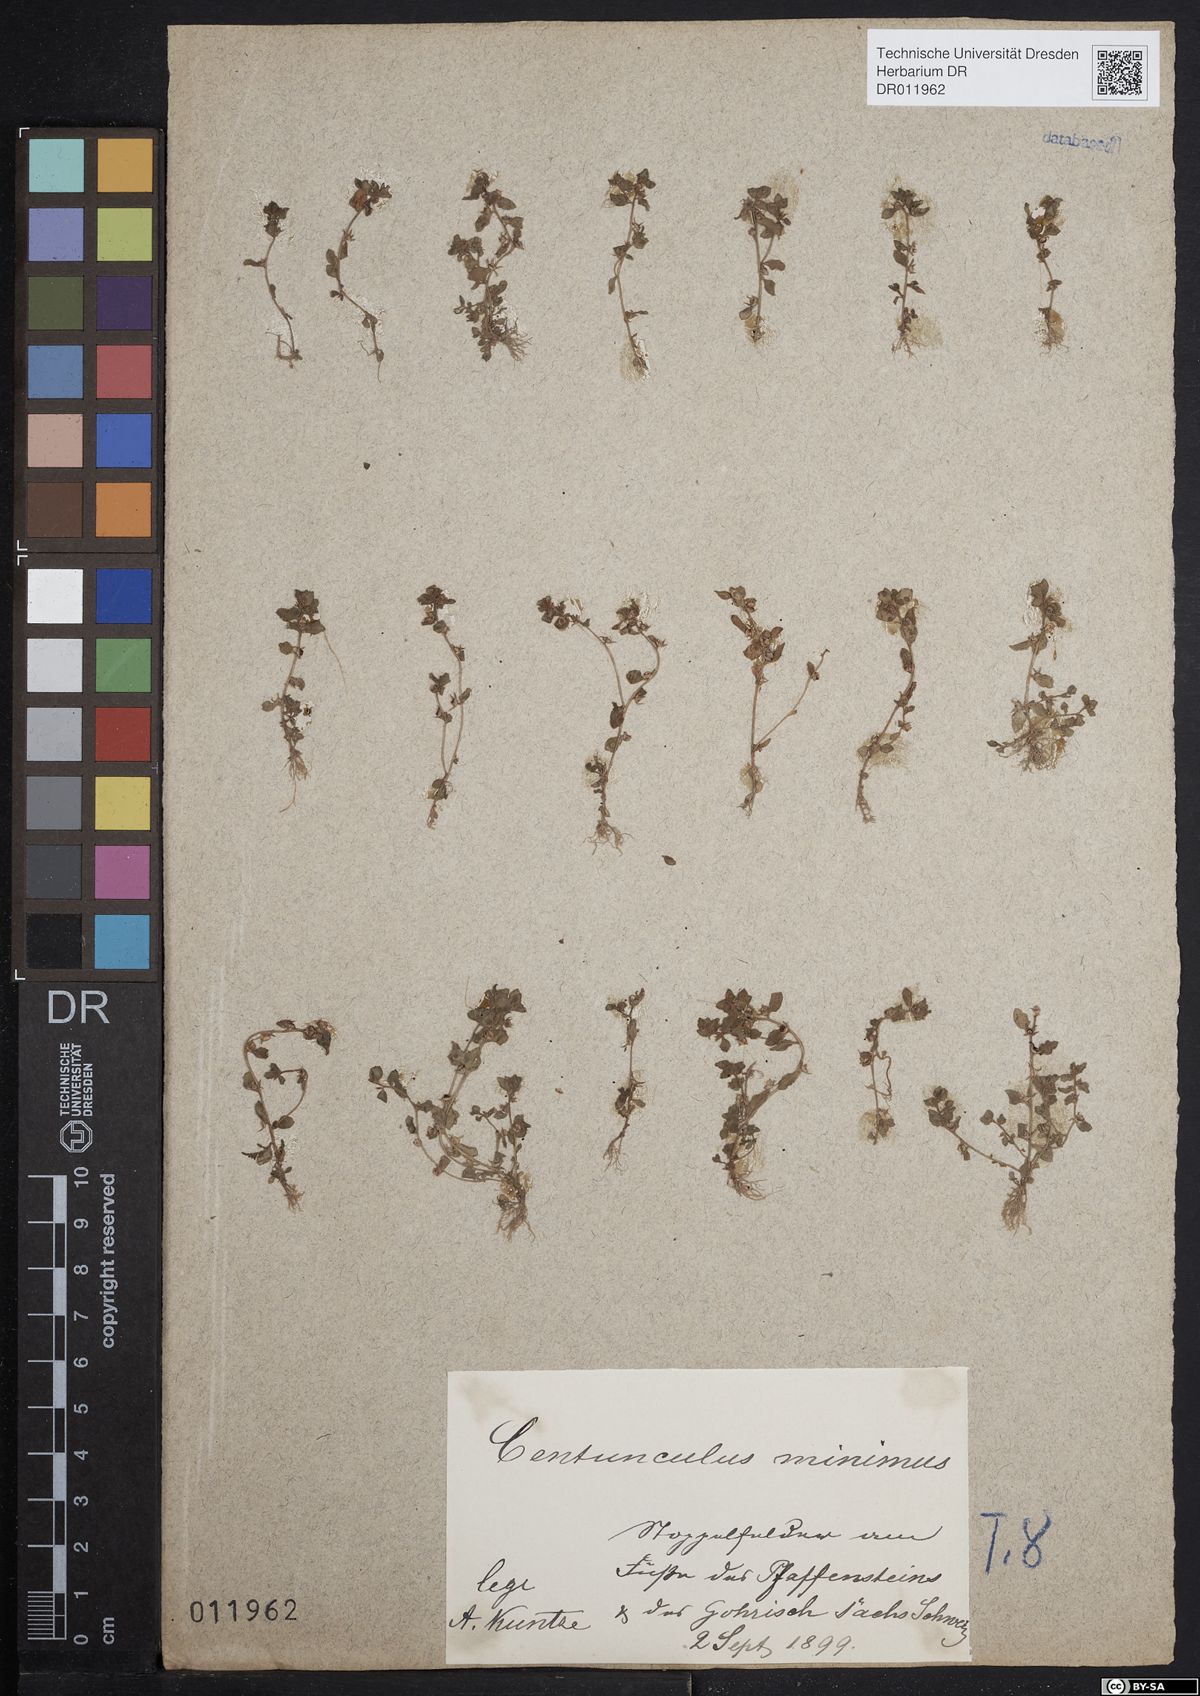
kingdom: Plantae
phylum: Tracheophyta
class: Magnoliopsida
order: Ericales
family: Primulaceae
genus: Lysimachia
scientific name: Lysimachia minima
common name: Chaffweed
